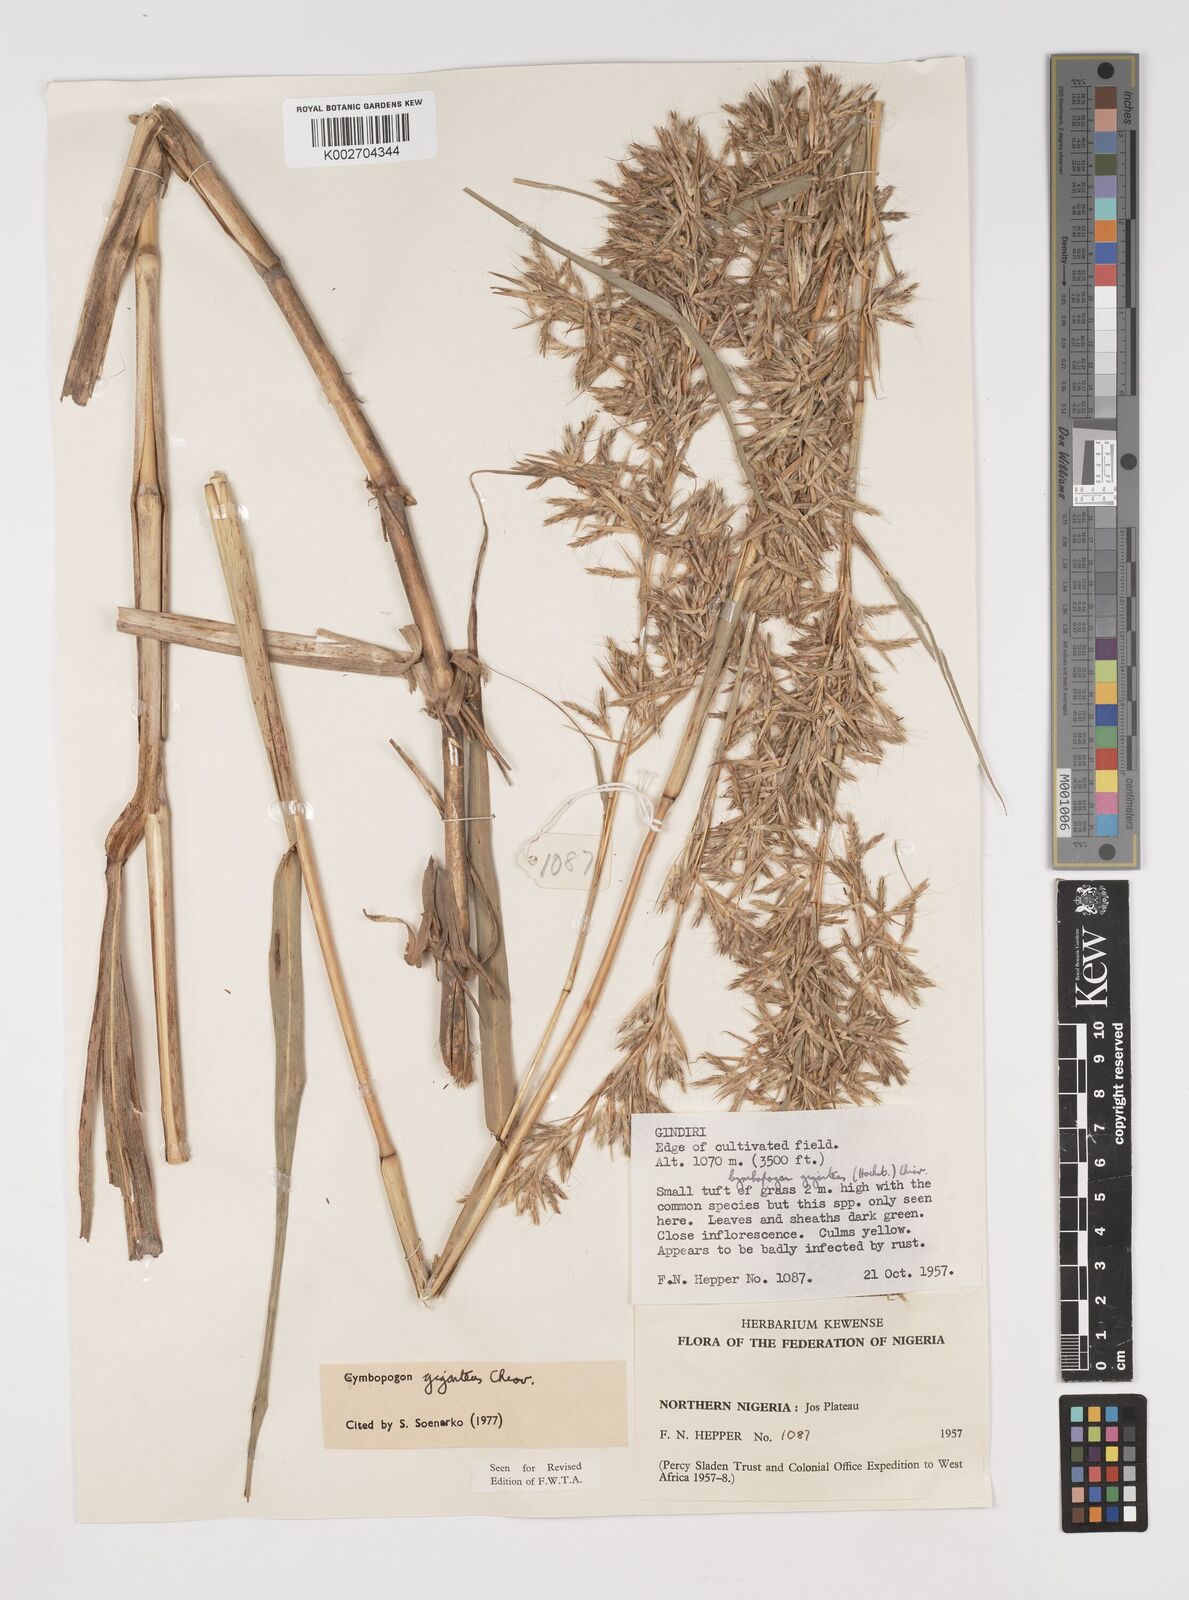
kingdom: Plantae
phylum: Tracheophyta
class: Liliopsida
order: Poales
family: Poaceae
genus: Cymbopogon
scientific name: Cymbopogon giganteus
